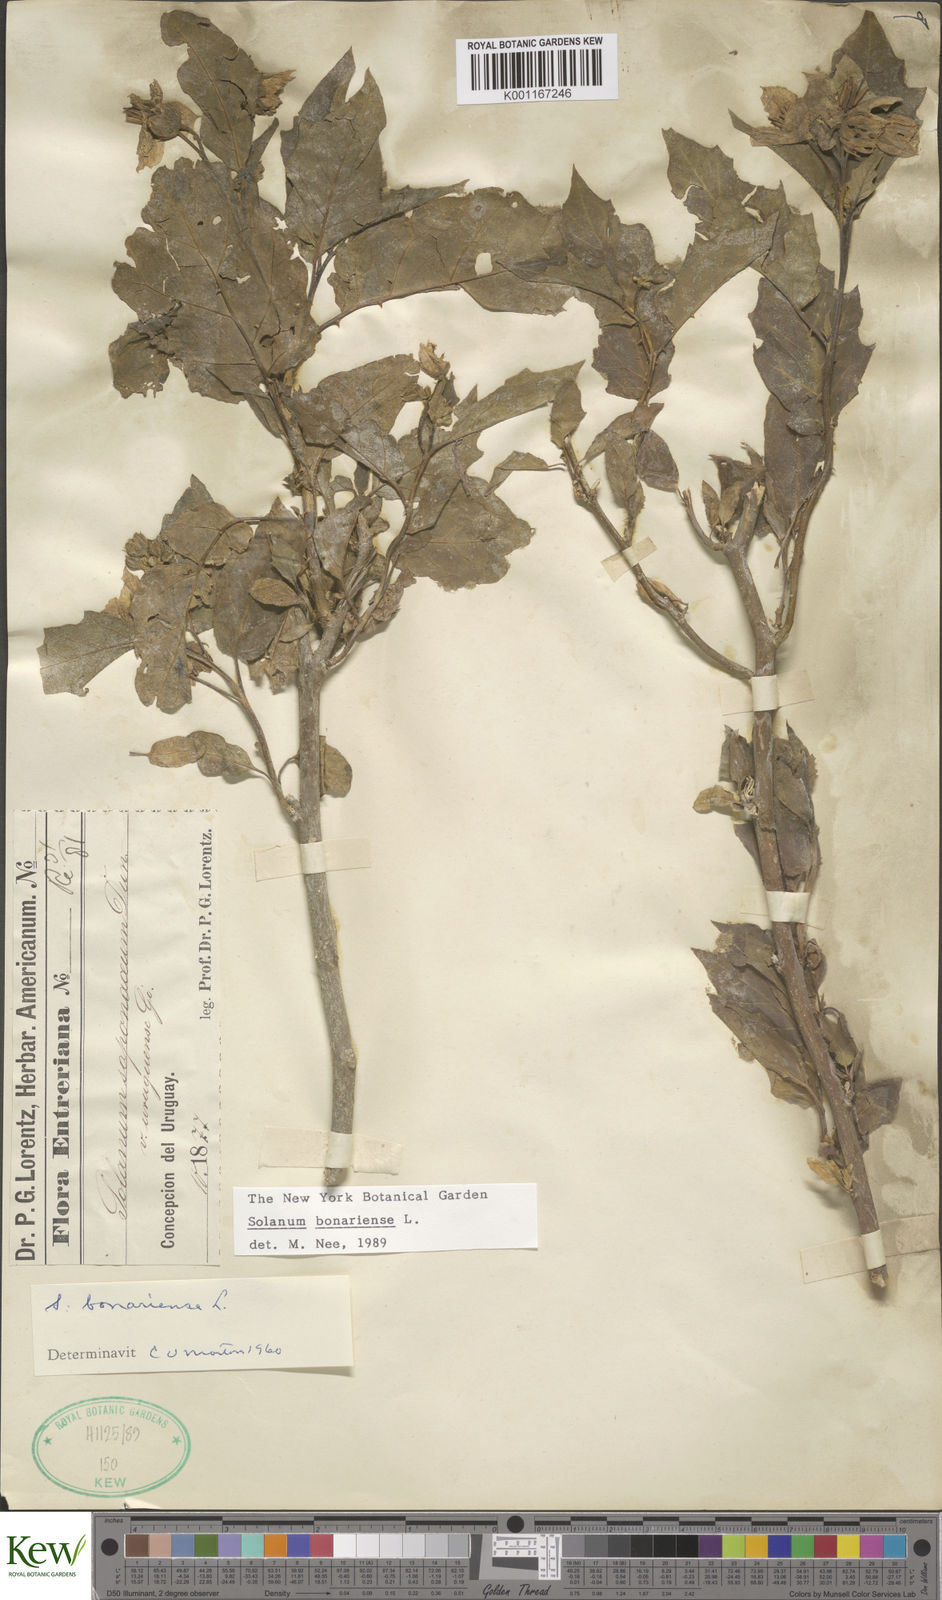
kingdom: Plantae
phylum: Tracheophyta
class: Magnoliopsida
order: Solanales
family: Solanaceae
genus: Solanum
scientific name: Solanum bonariense
